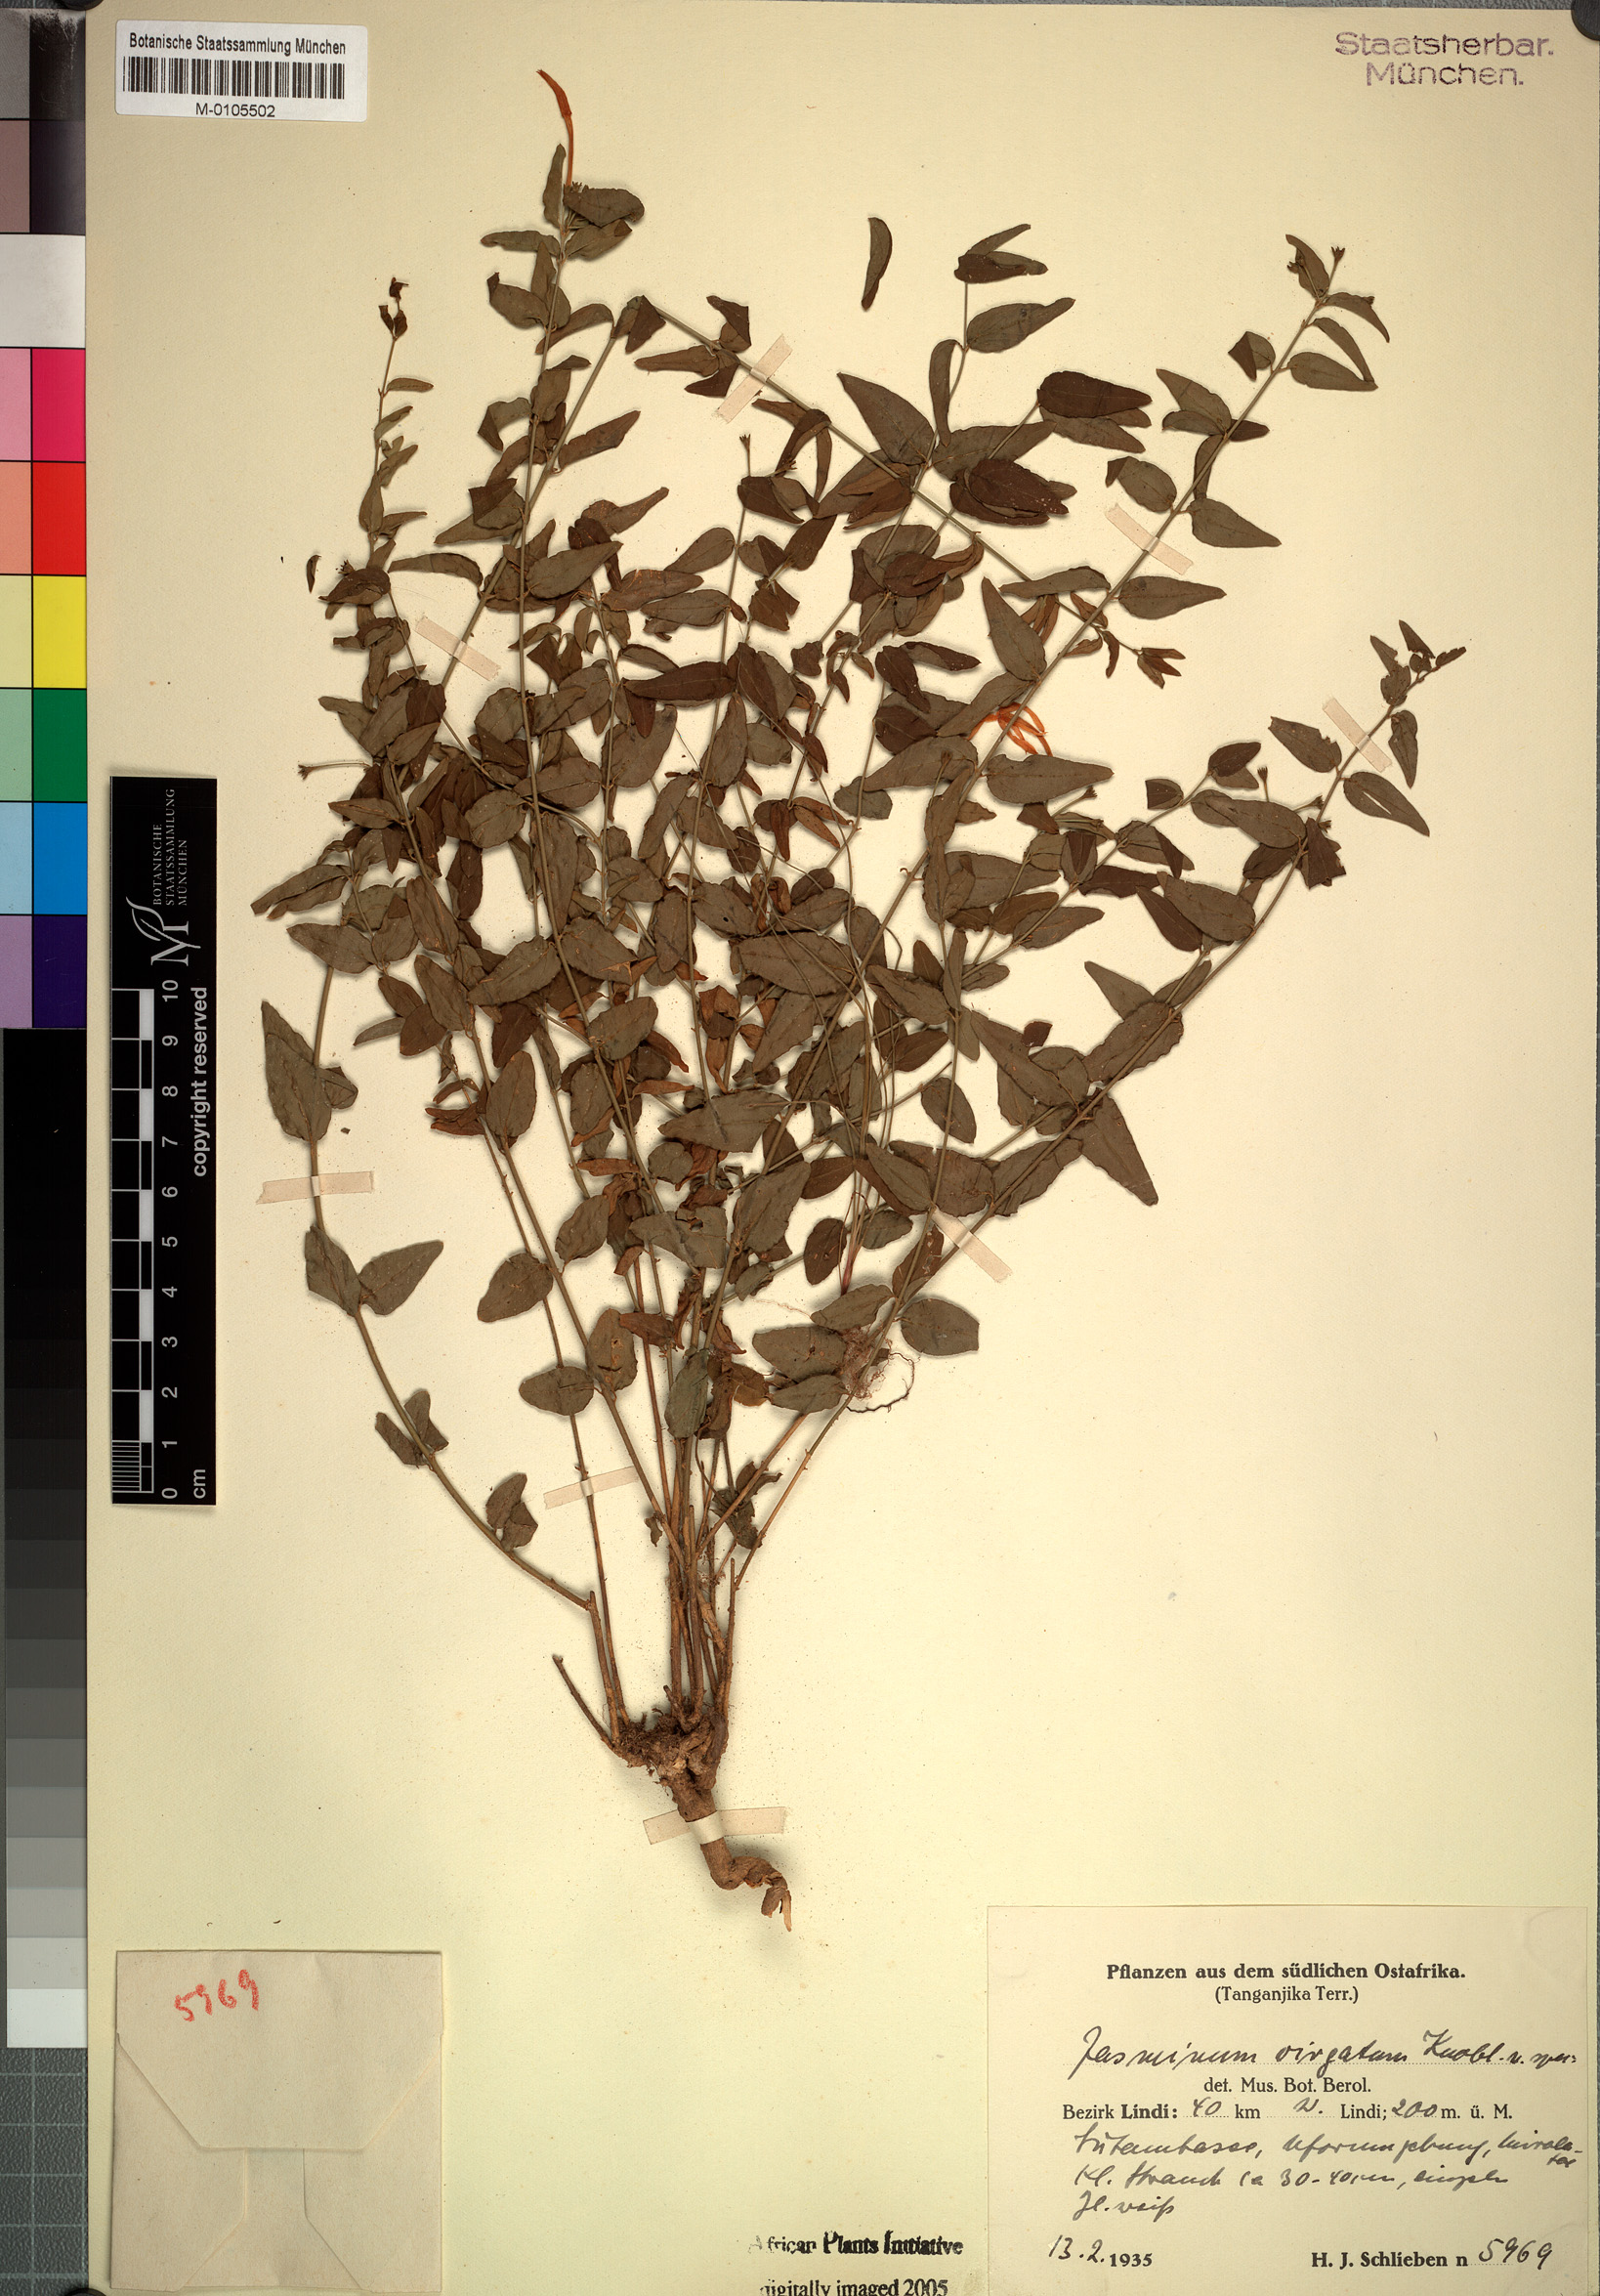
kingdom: Plantae
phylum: Tracheophyta
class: Magnoliopsida
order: Lamiales
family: Oleaceae
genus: Jasminum
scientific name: Jasminum streptopus
